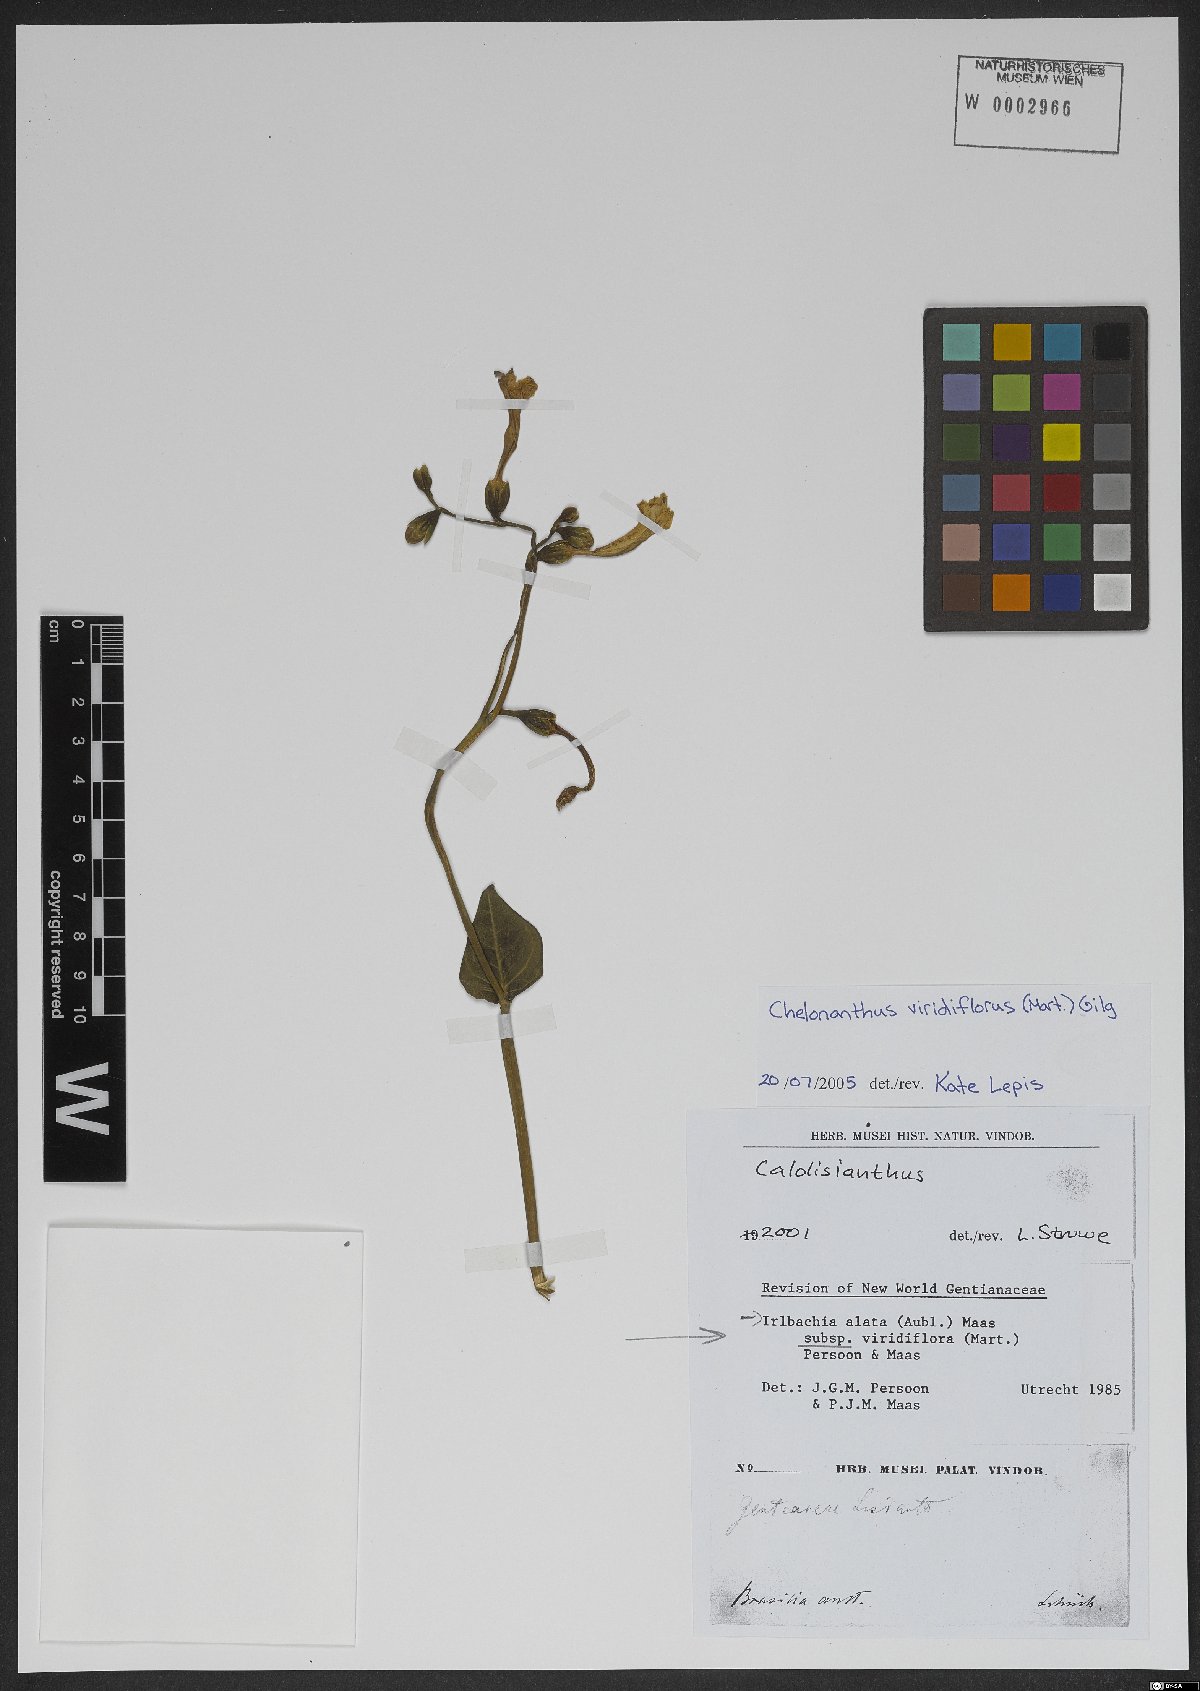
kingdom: Plantae
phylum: Tracheophyta
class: Magnoliopsida
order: Gentianales
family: Gentianaceae
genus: Chelonanthus
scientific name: Chelonanthus viridiflorus
